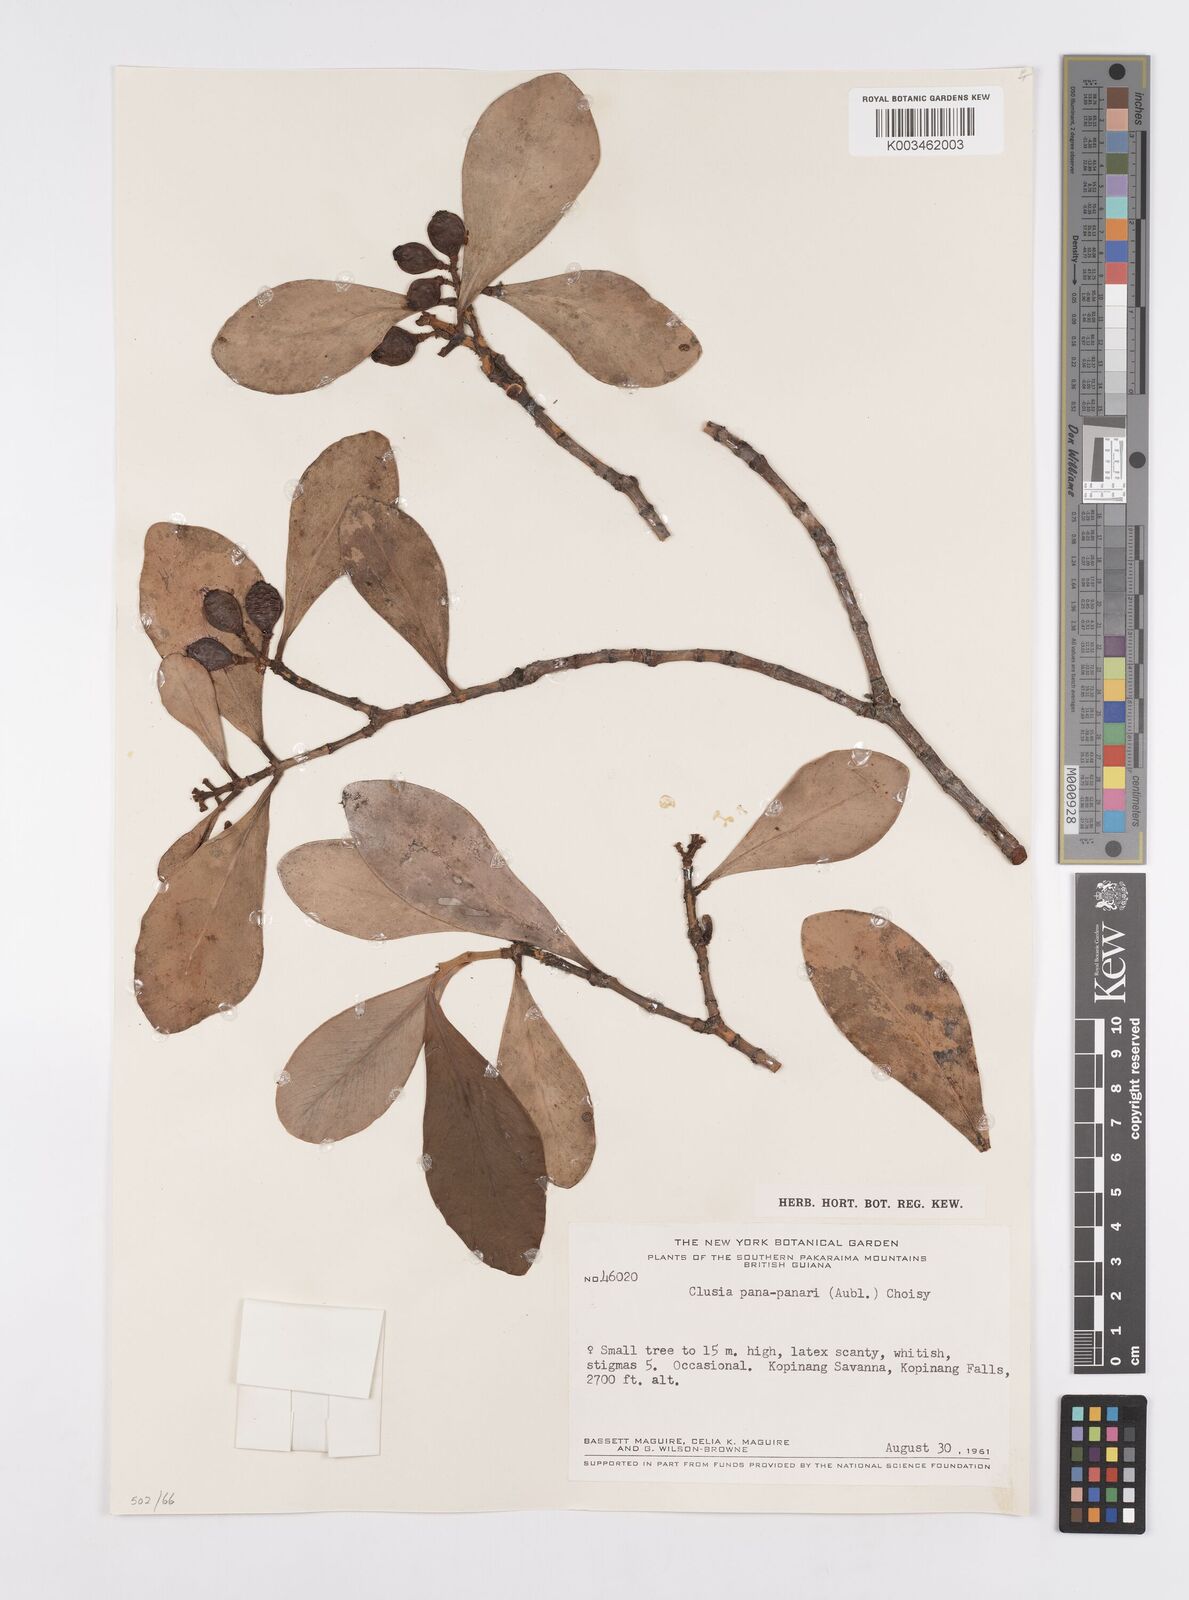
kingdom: Plantae
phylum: Tracheophyta
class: Magnoliopsida
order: Malpighiales
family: Clusiaceae
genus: Clusia
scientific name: Clusia panapanari
